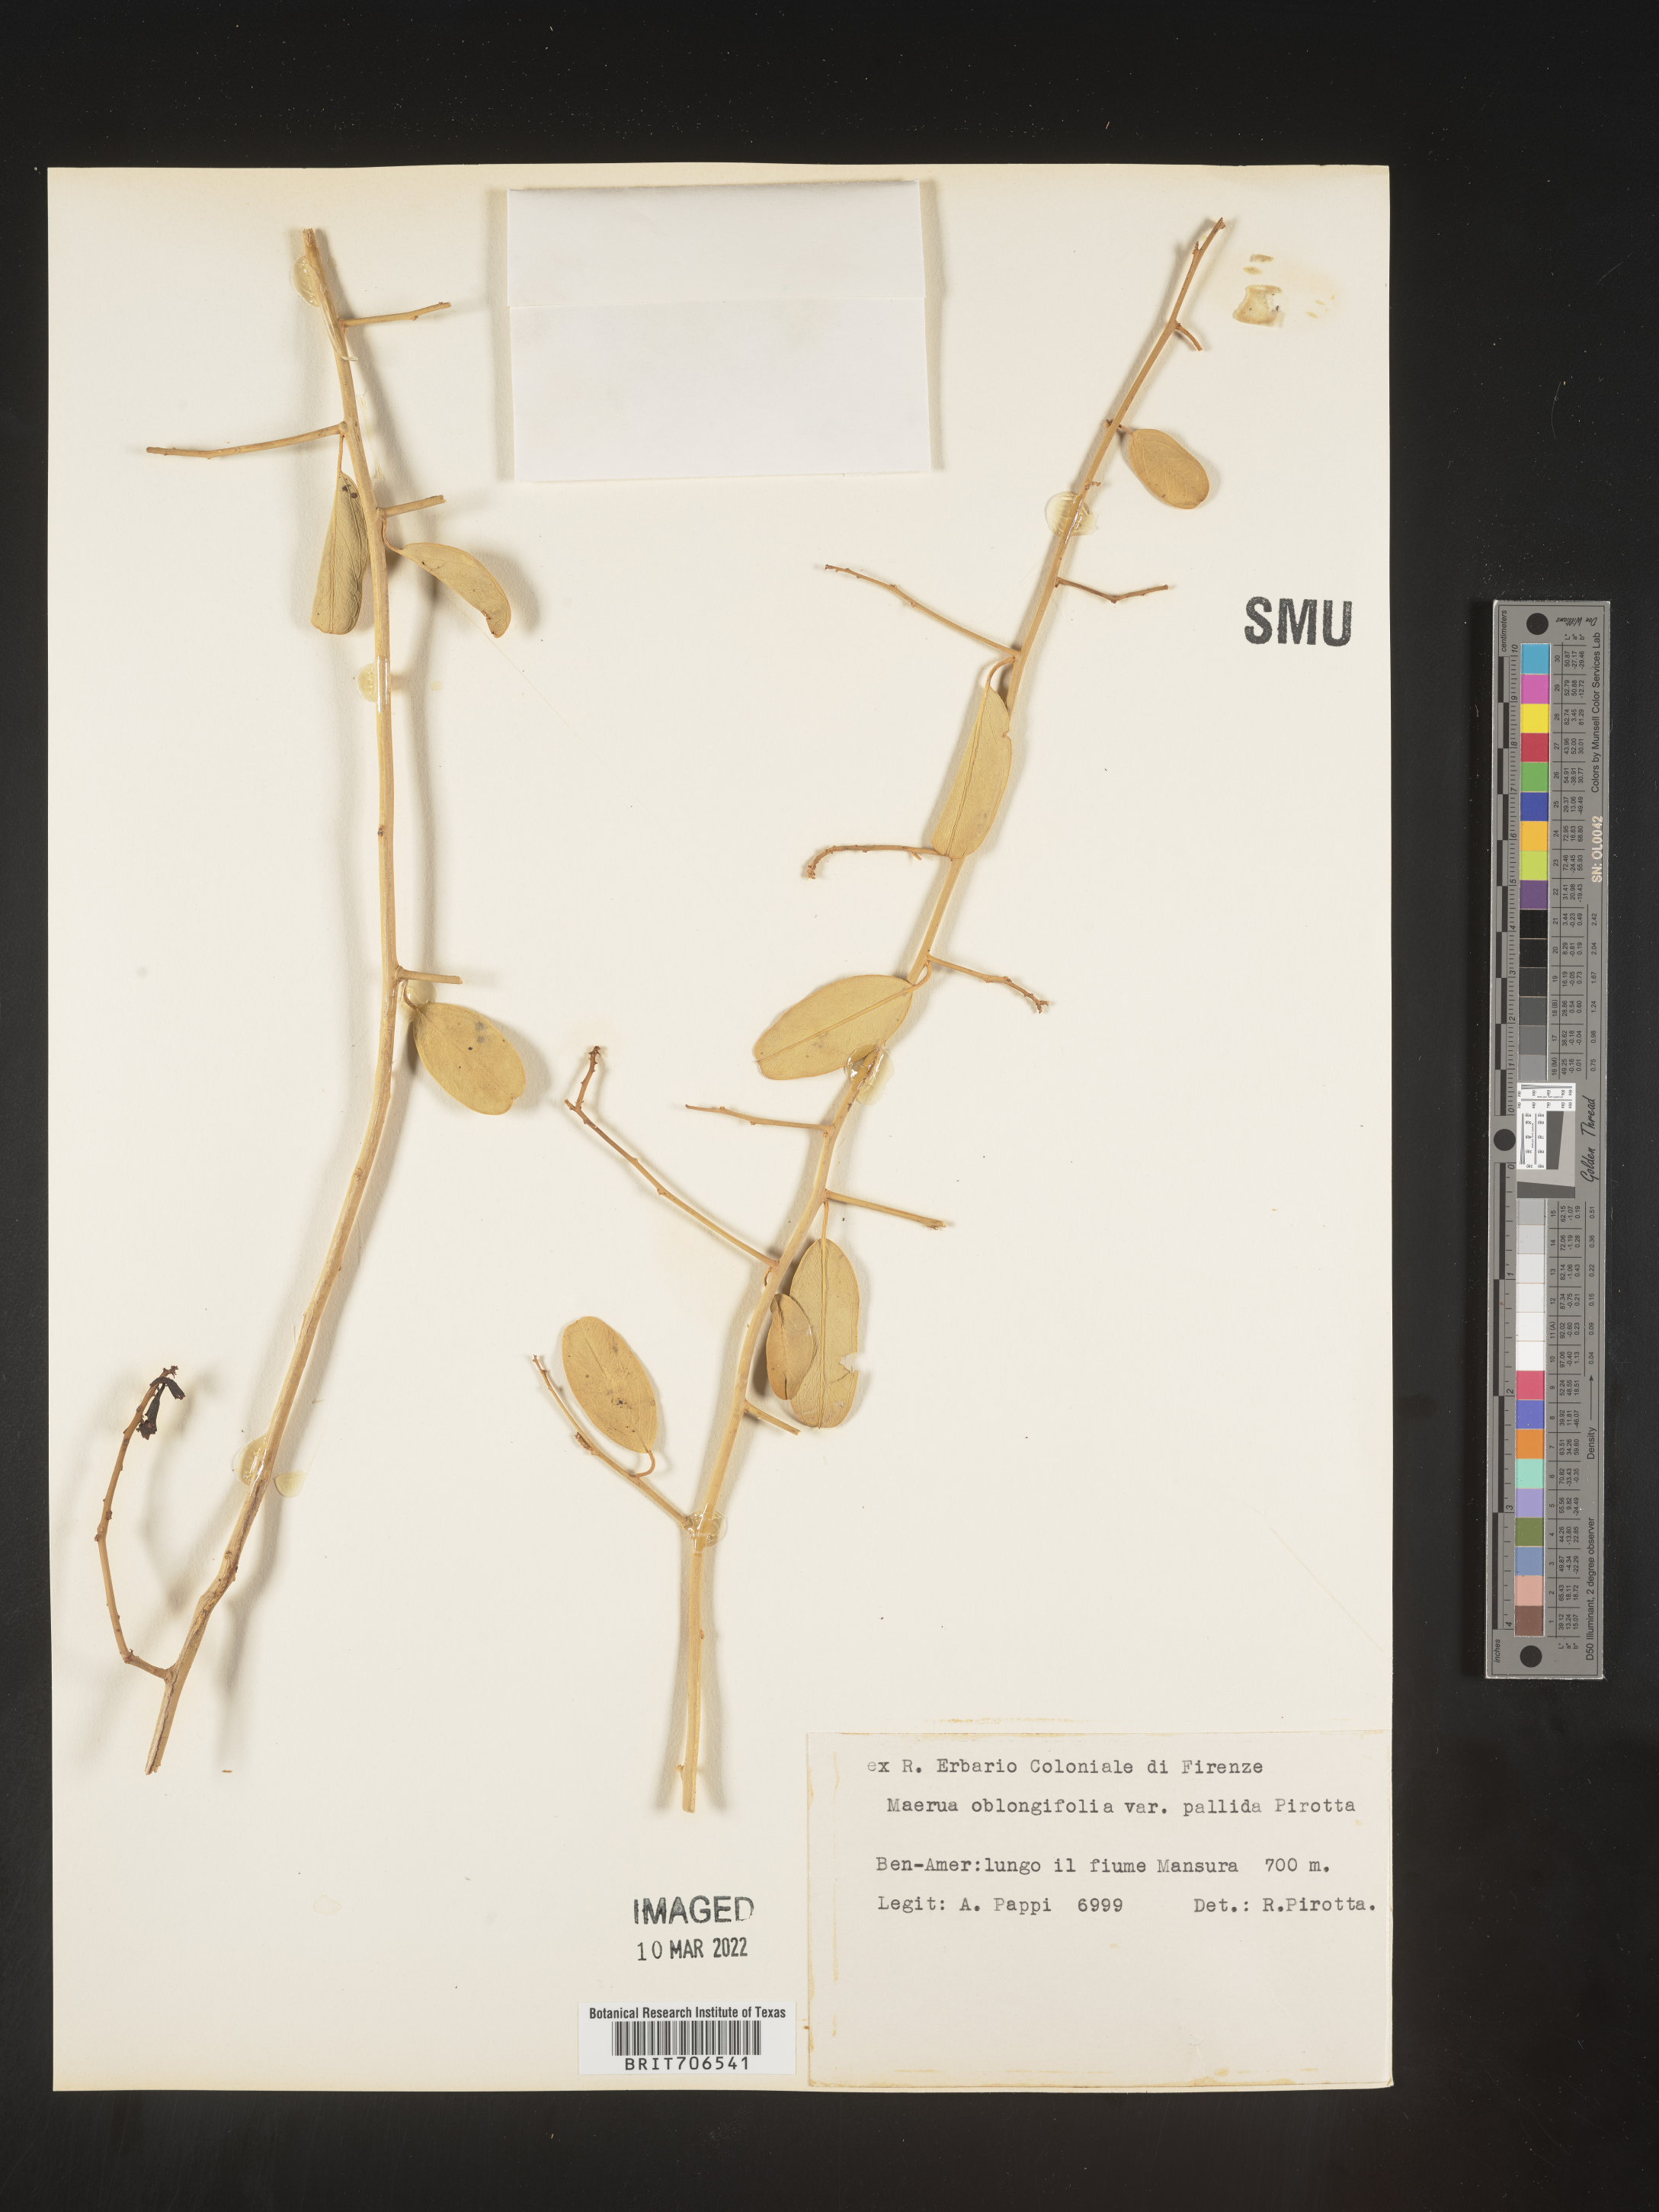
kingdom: Plantae
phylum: Tracheophyta
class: Magnoliopsida
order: Brassicales
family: Capparaceae
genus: Maerua
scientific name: Maerua
